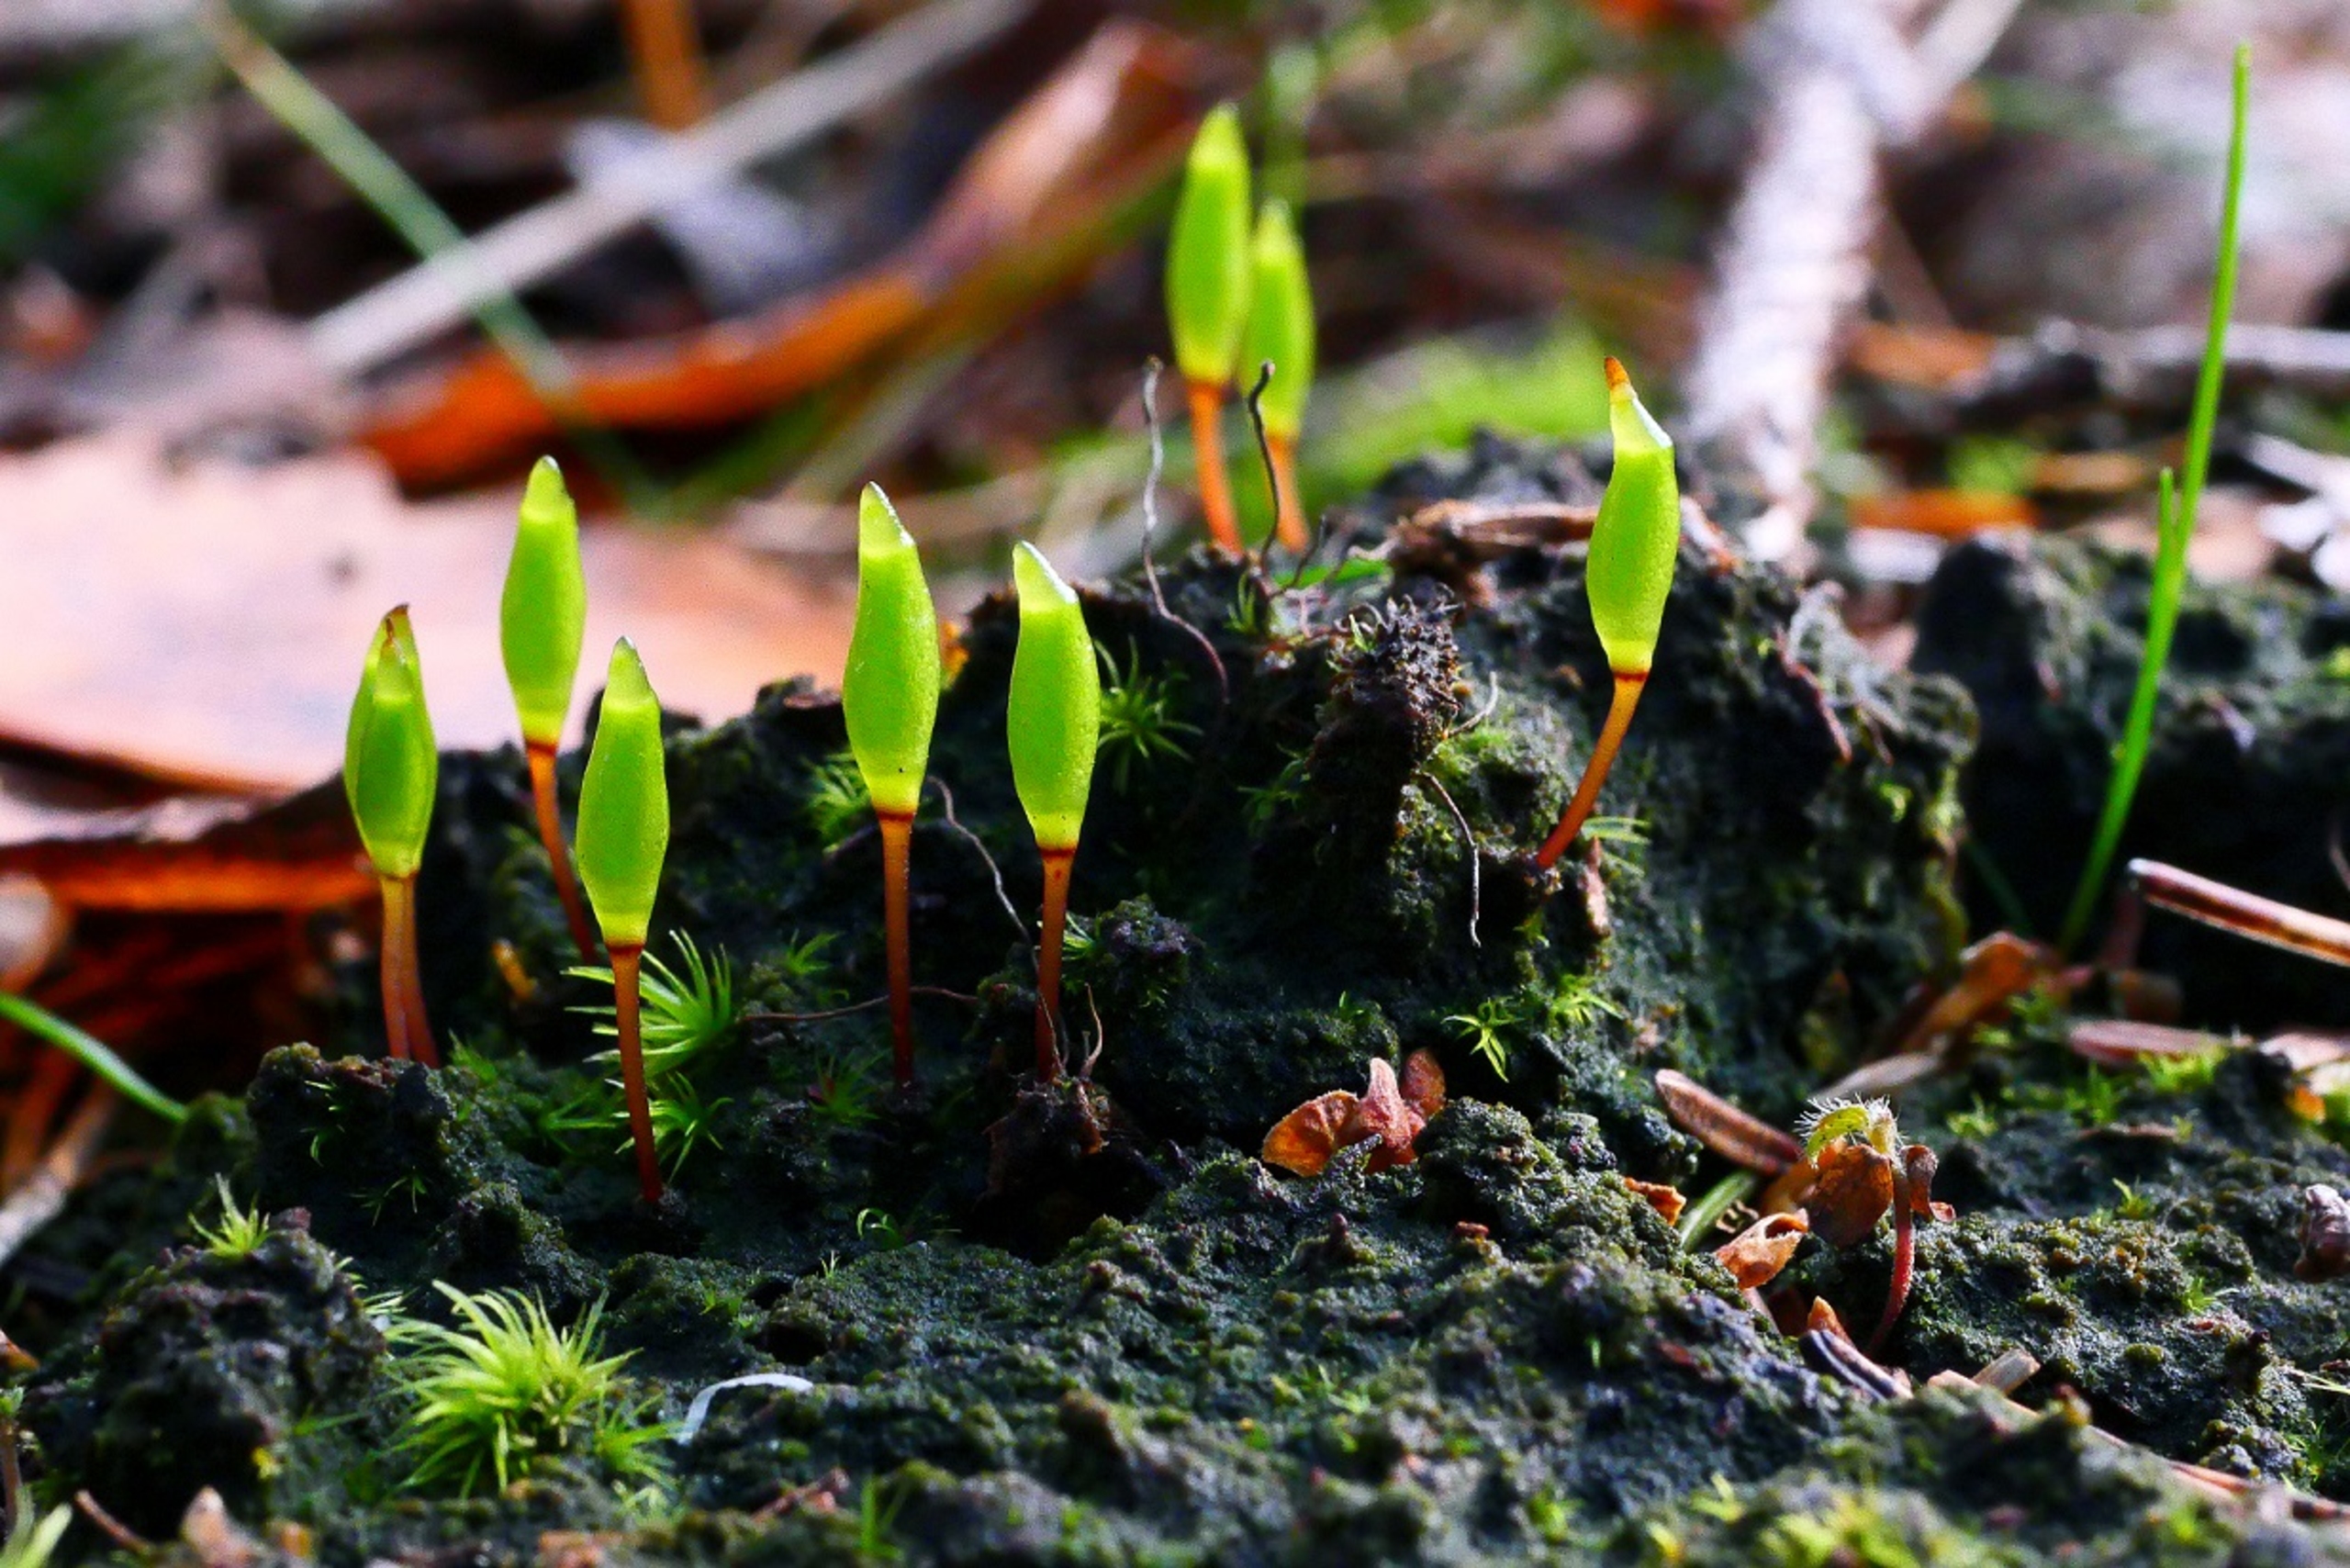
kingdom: Plantae
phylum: Bryophyta
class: Bryopsida
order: Buxbaumiales
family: Buxbaumiaceae
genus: Buxbaumia
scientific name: Buxbaumia viridis
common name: Grøn buxbaumia
